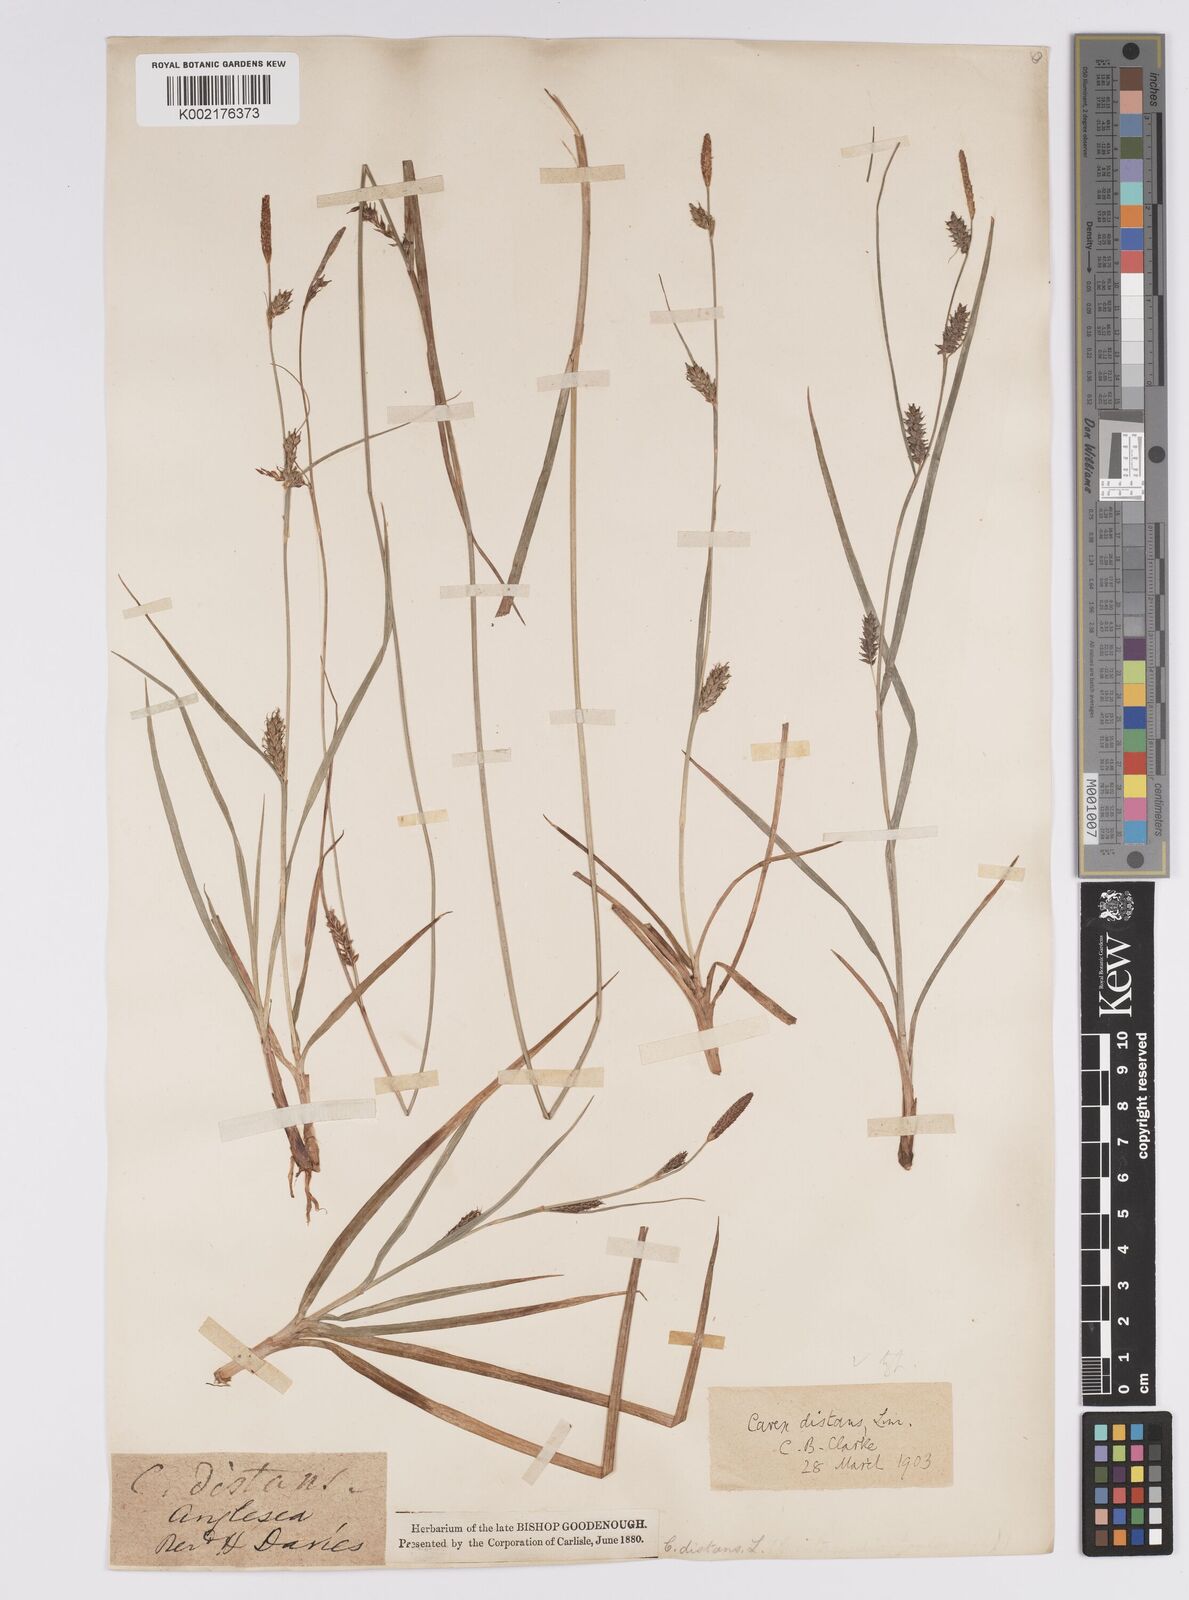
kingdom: Plantae
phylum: Tracheophyta
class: Liliopsida
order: Poales
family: Cyperaceae
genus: Carex
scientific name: Carex distans
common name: Distant sedge
